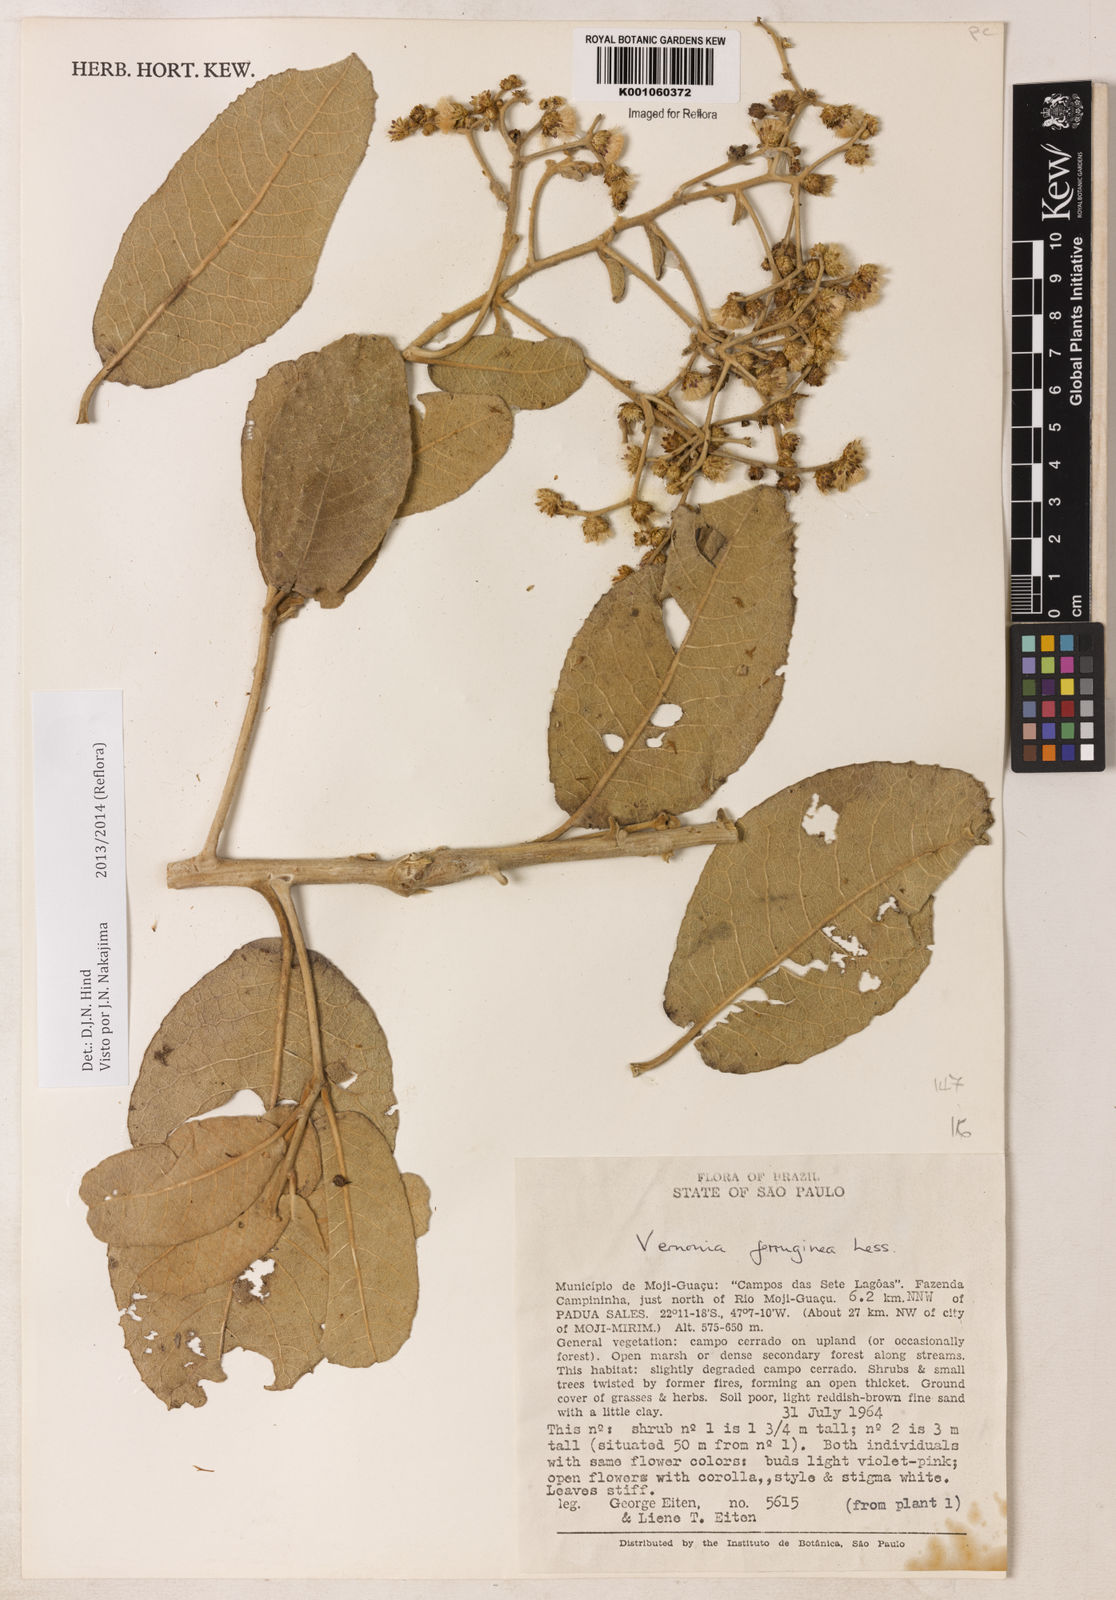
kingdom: Plantae
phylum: Tracheophyta
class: Magnoliopsida
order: Asterales
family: Asteraceae
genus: Vernonanthura
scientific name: Vernonanthura ferruginea
